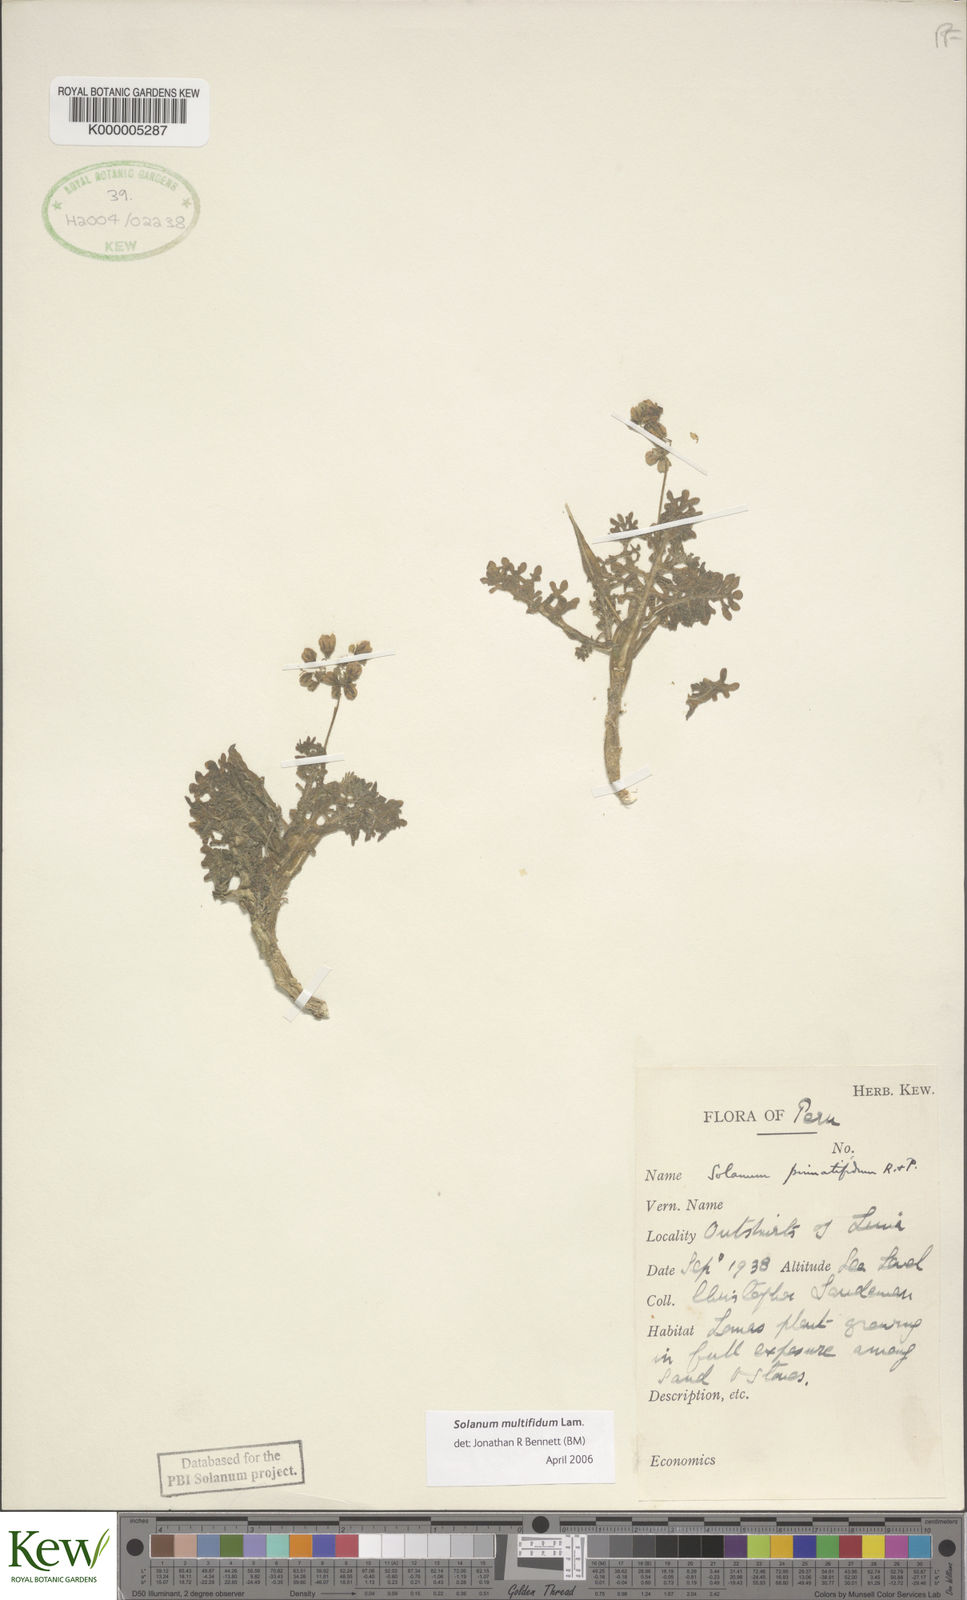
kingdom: Plantae
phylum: Tracheophyta
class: Magnoliopsida
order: Solanales
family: Solanaceae
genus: Solanum
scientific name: Solanum multifidum
